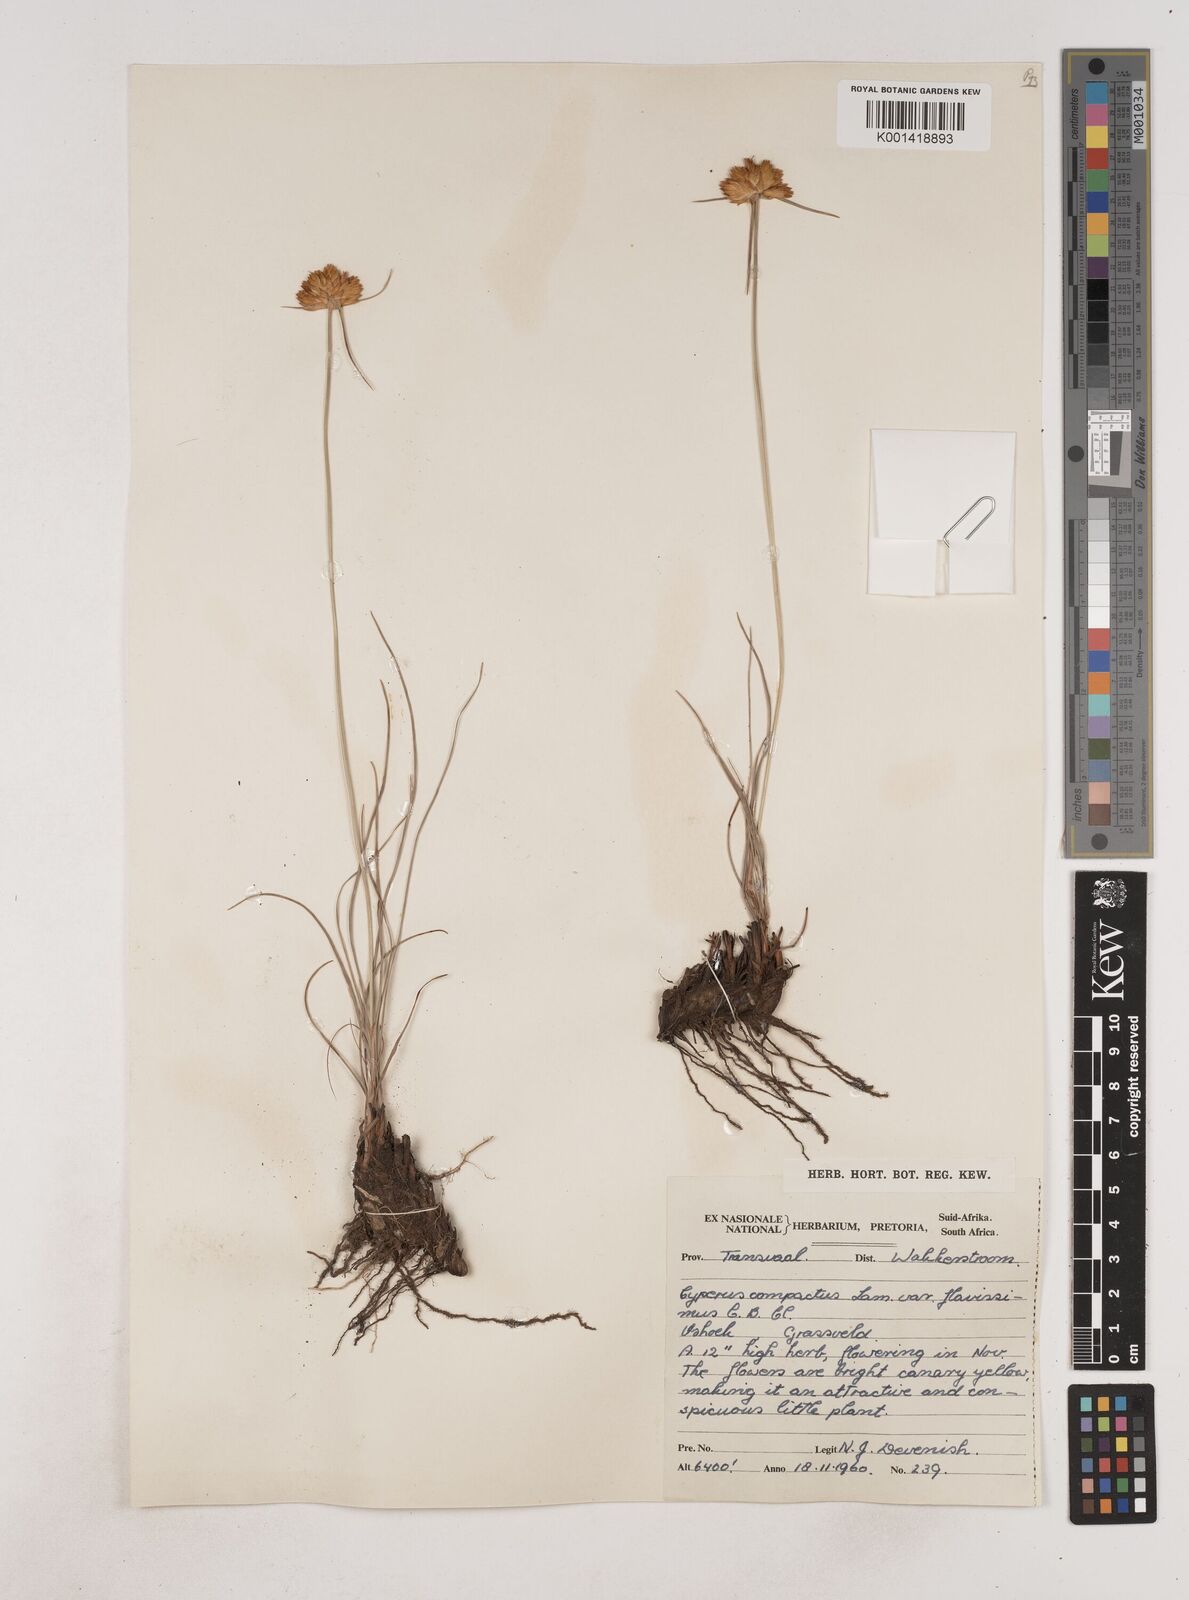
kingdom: Plantae
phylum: Tracheophyta
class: Liliopsida
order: Poales
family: Cyperaceae
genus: Cyperus
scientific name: Cyperus sphaerocephalus
